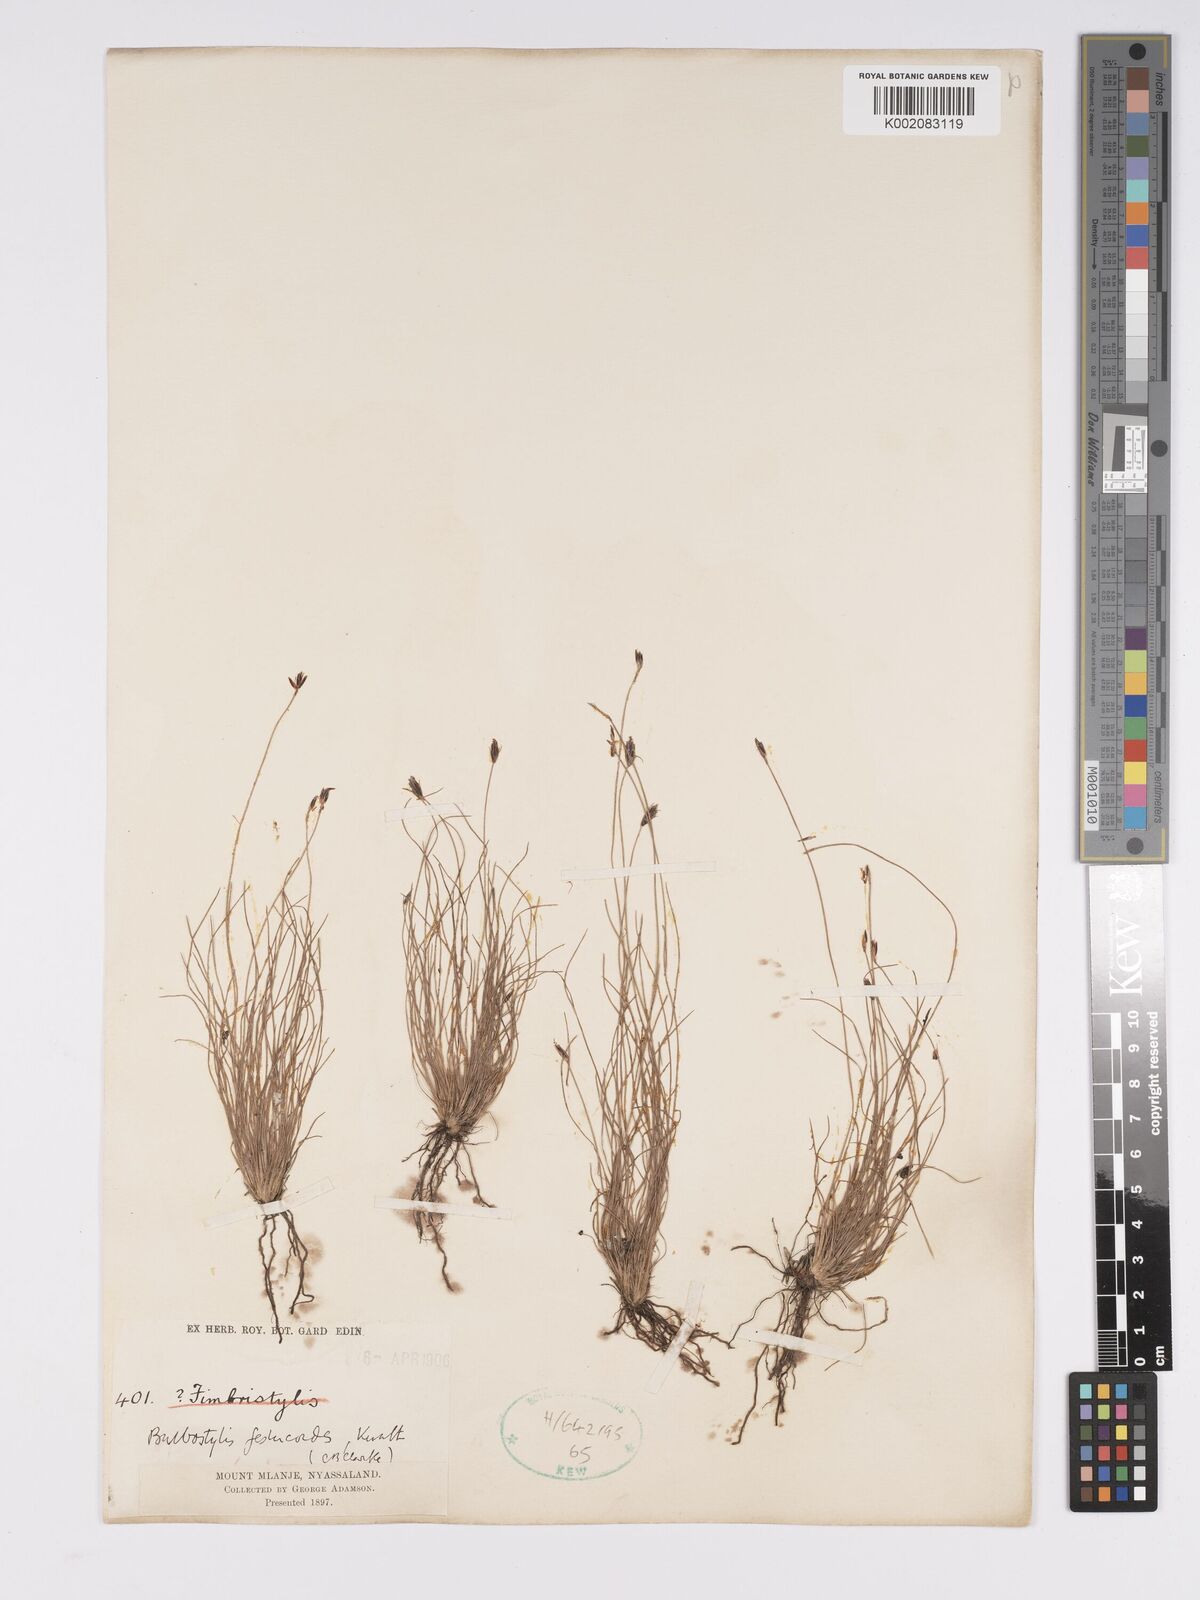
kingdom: Plantae
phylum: Tracheophyta
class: Liliopsida
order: Poales
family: Cyperaceae
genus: Bulbostylis
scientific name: Bulbostylis festucoides
